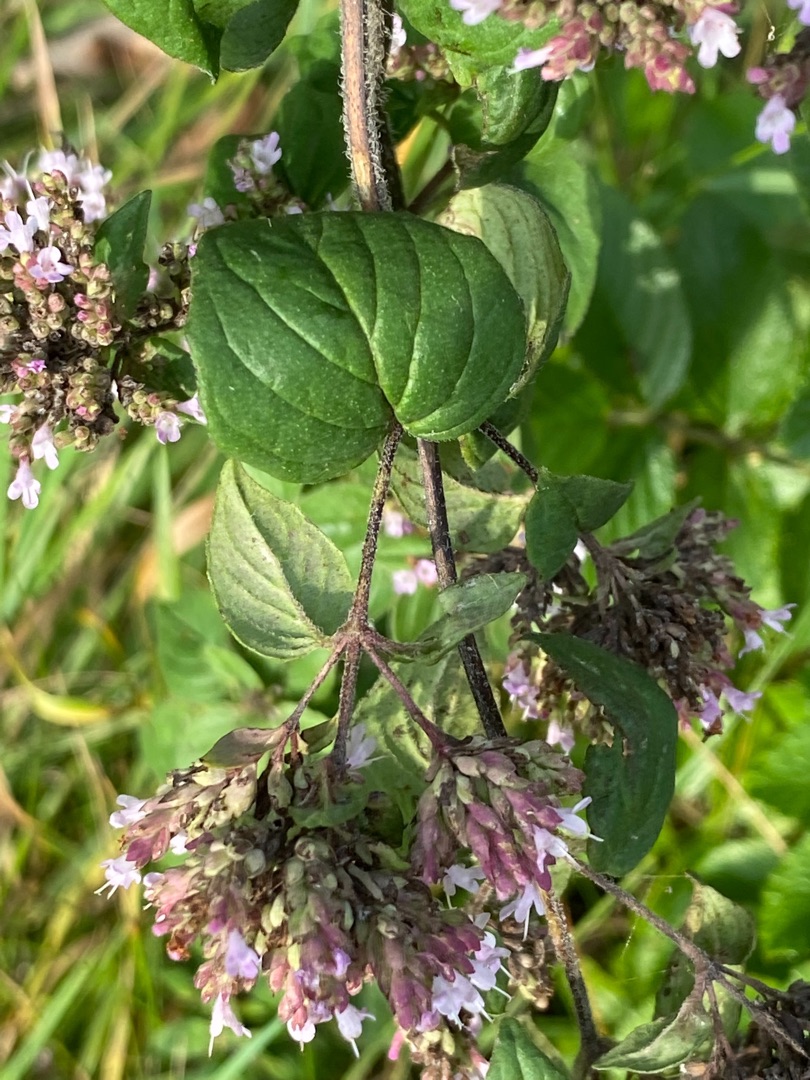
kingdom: Plantae
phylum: Tracheophyta
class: Magnoliopsida
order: Lamiales
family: Lamiaceae
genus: Origanum
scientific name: Origanum vulgare
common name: Merian
